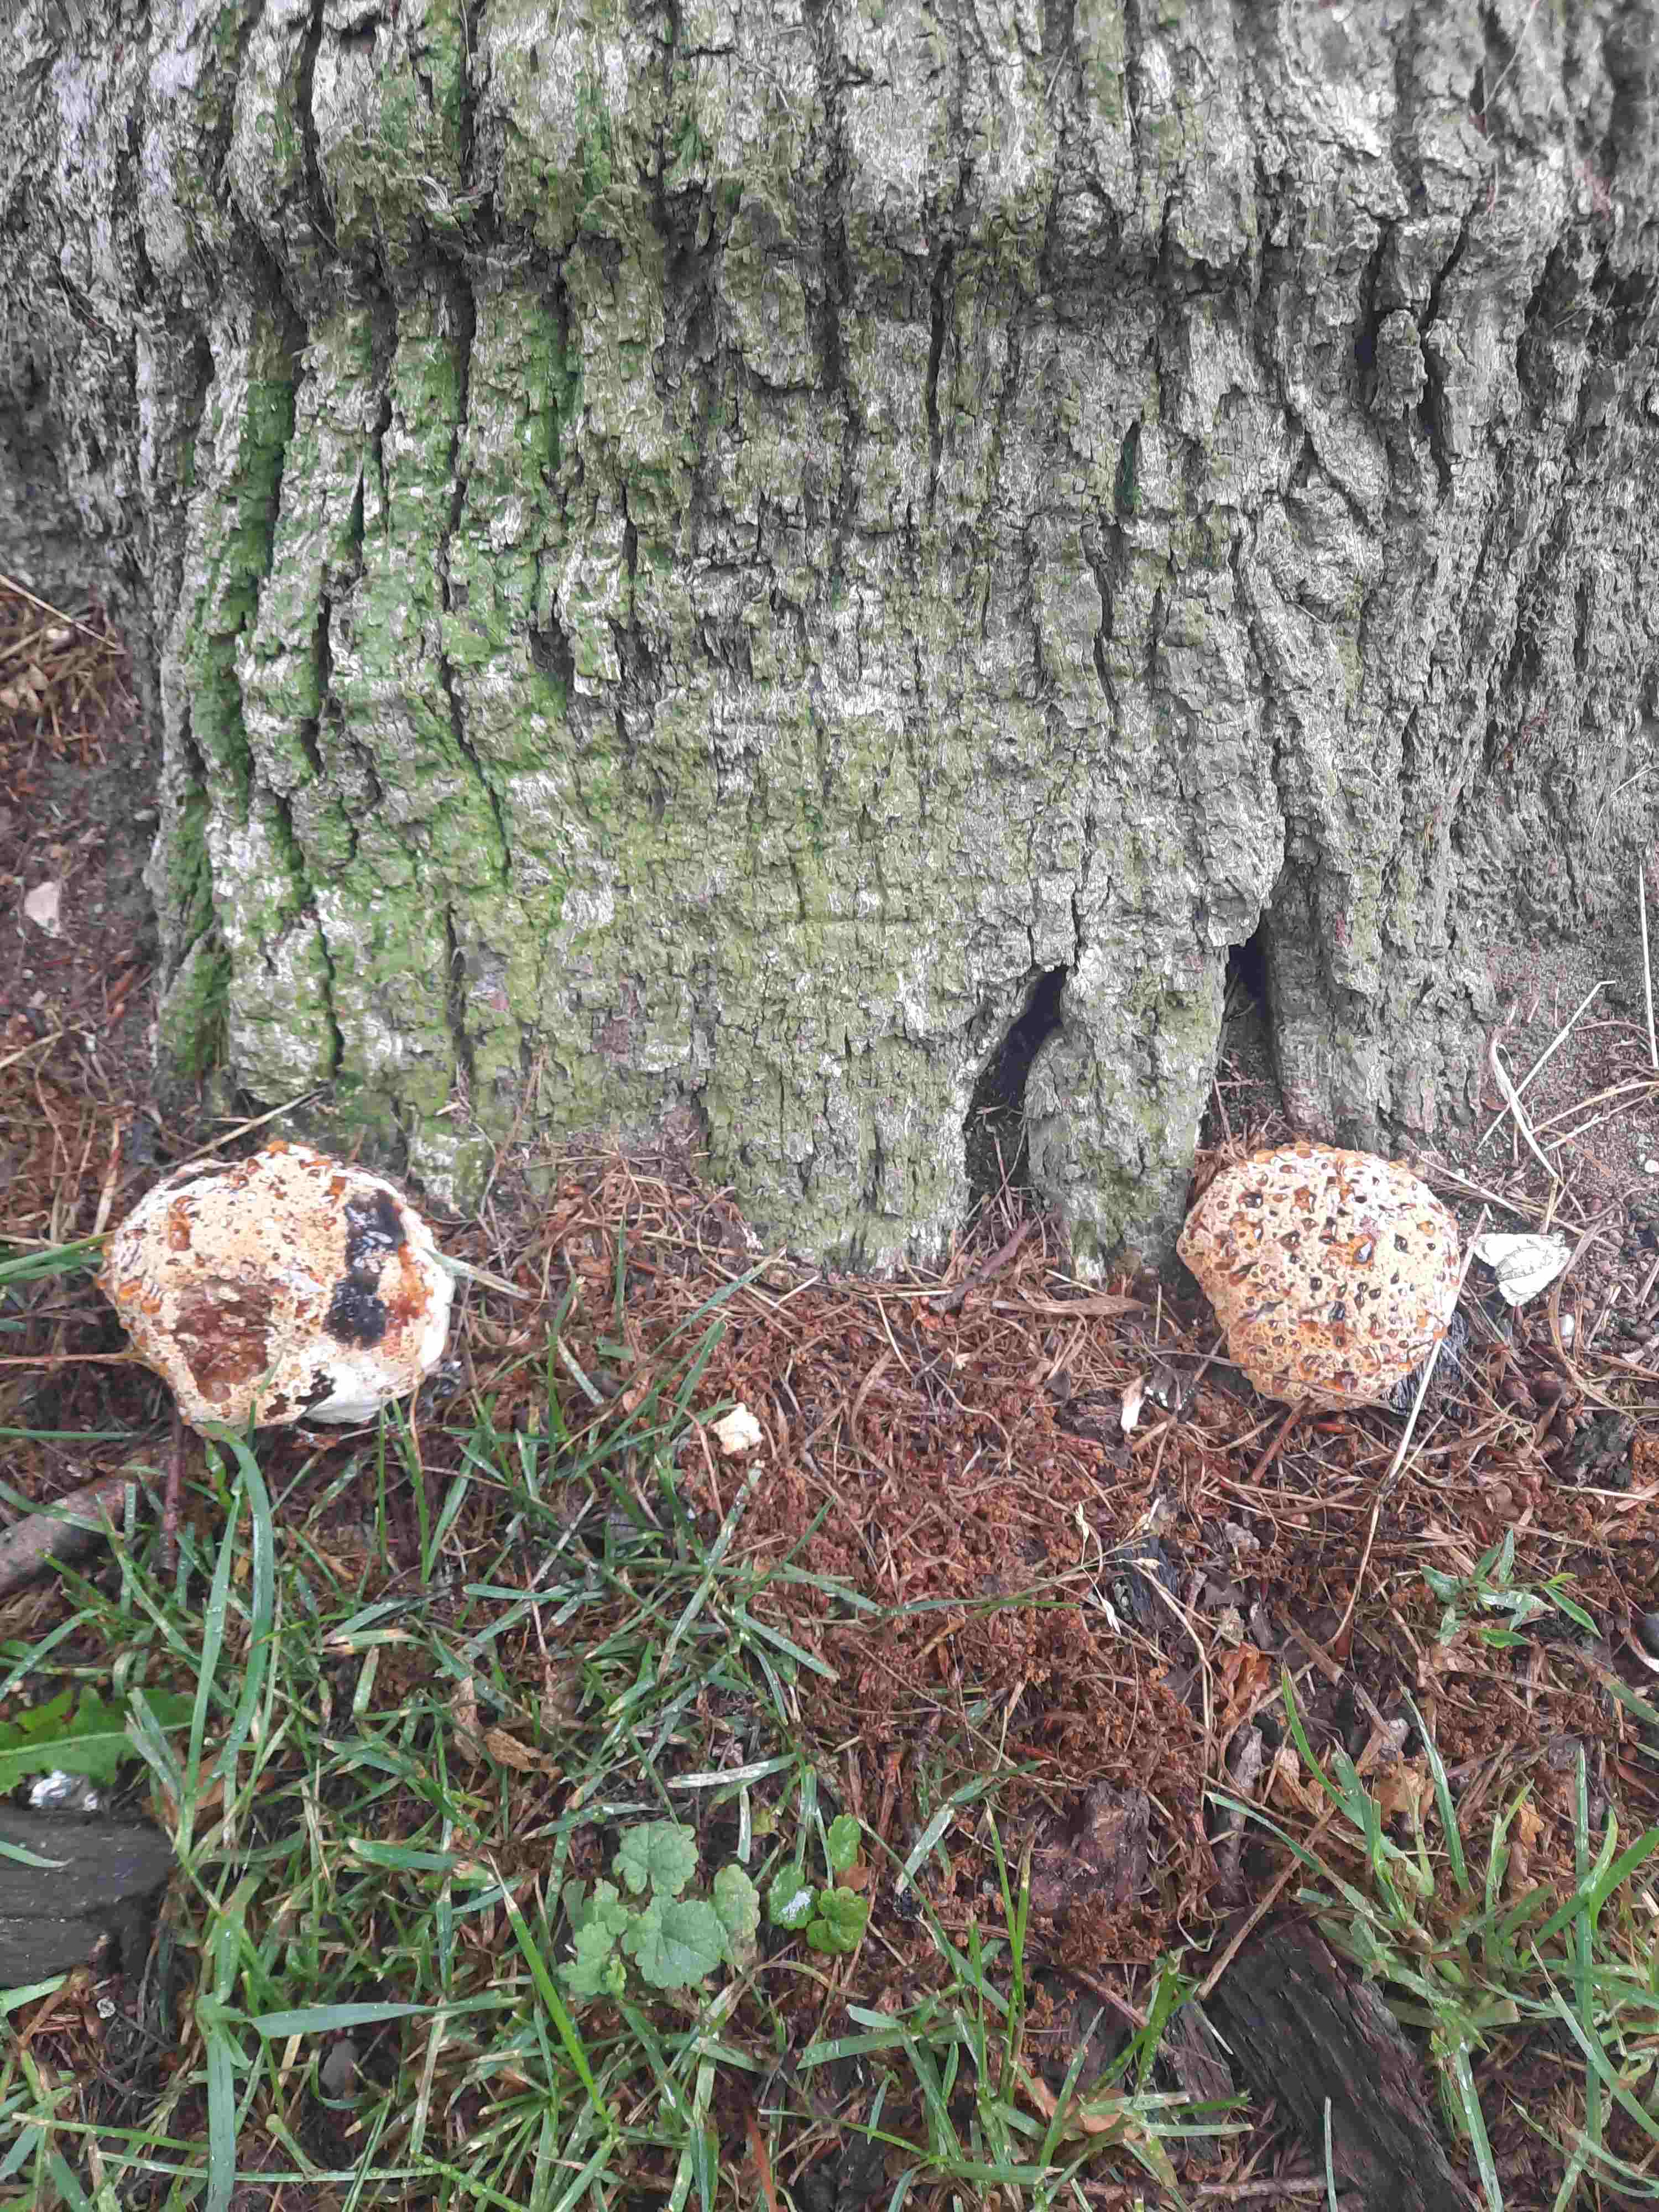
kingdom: Fungi
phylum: Basidiomycota
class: Agaricomycetes
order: Hymenochaetales
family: Hymenochaetaceae
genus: Pseudoinonotus
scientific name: Pseudoinonotus dryadeus
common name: ege-spejlporesvamp
